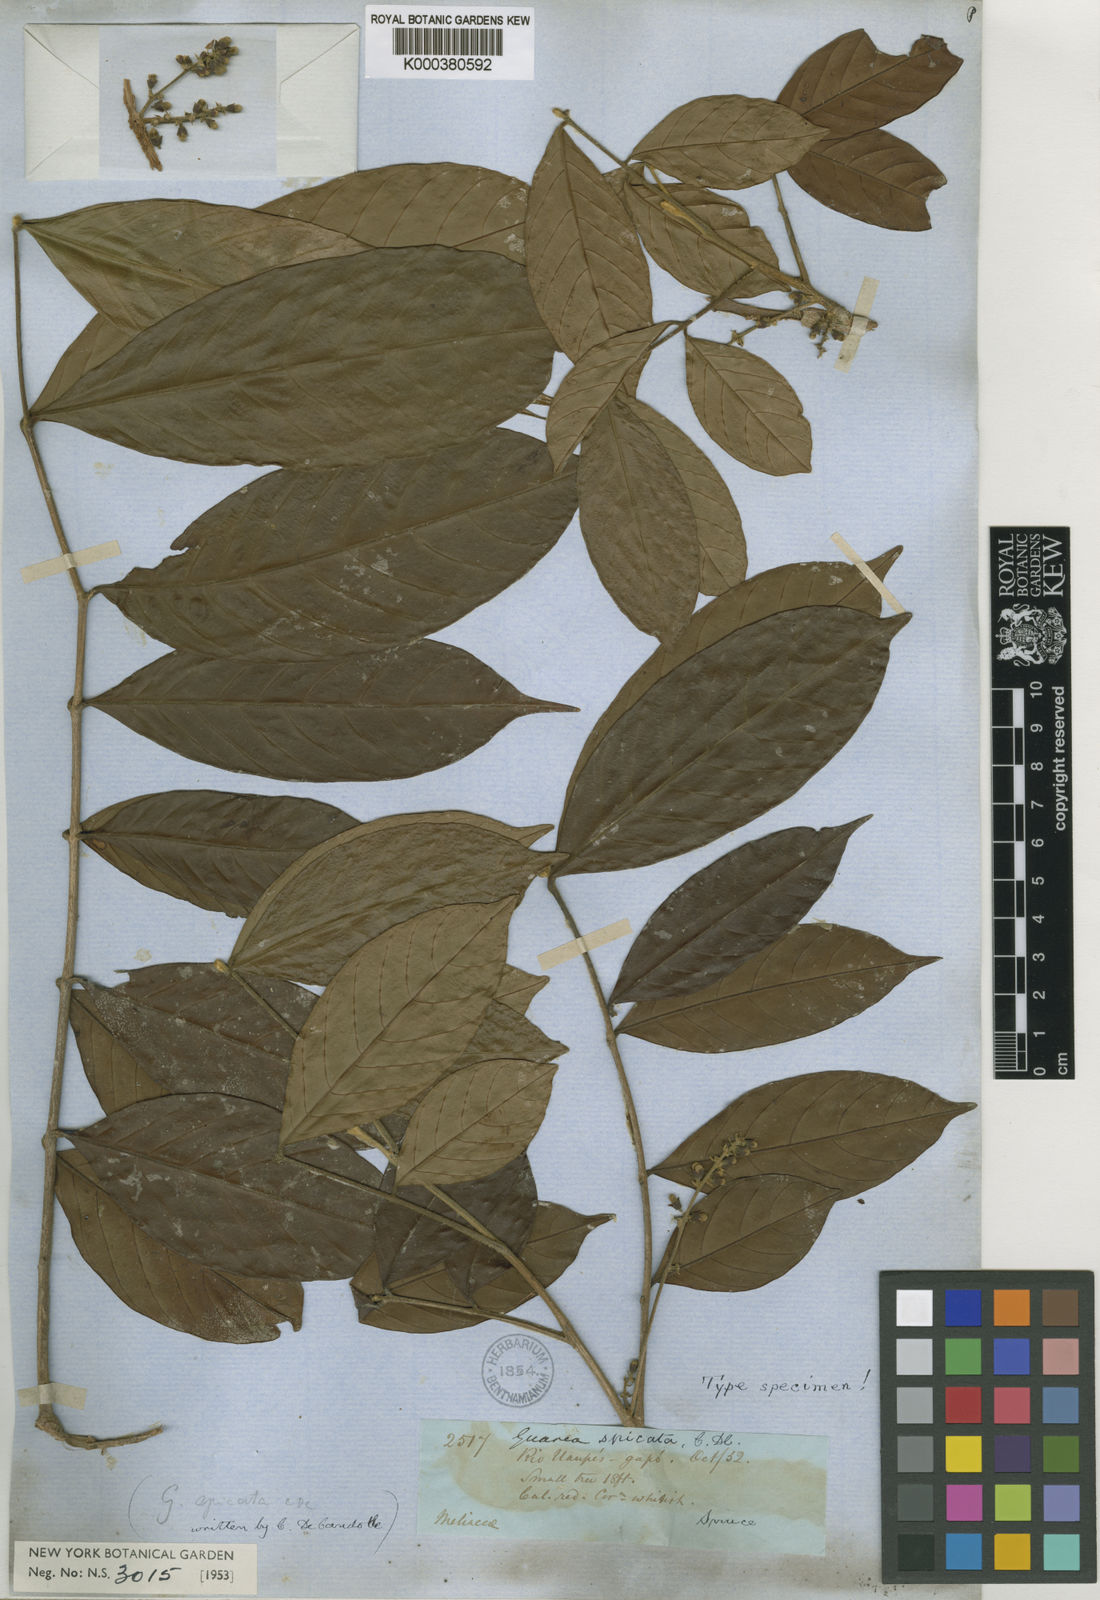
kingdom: Plantae
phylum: Tracheophyta
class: Magnoliopsida
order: Sapindales
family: Meliaceae
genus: Guarea
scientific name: Guarea pubescens
